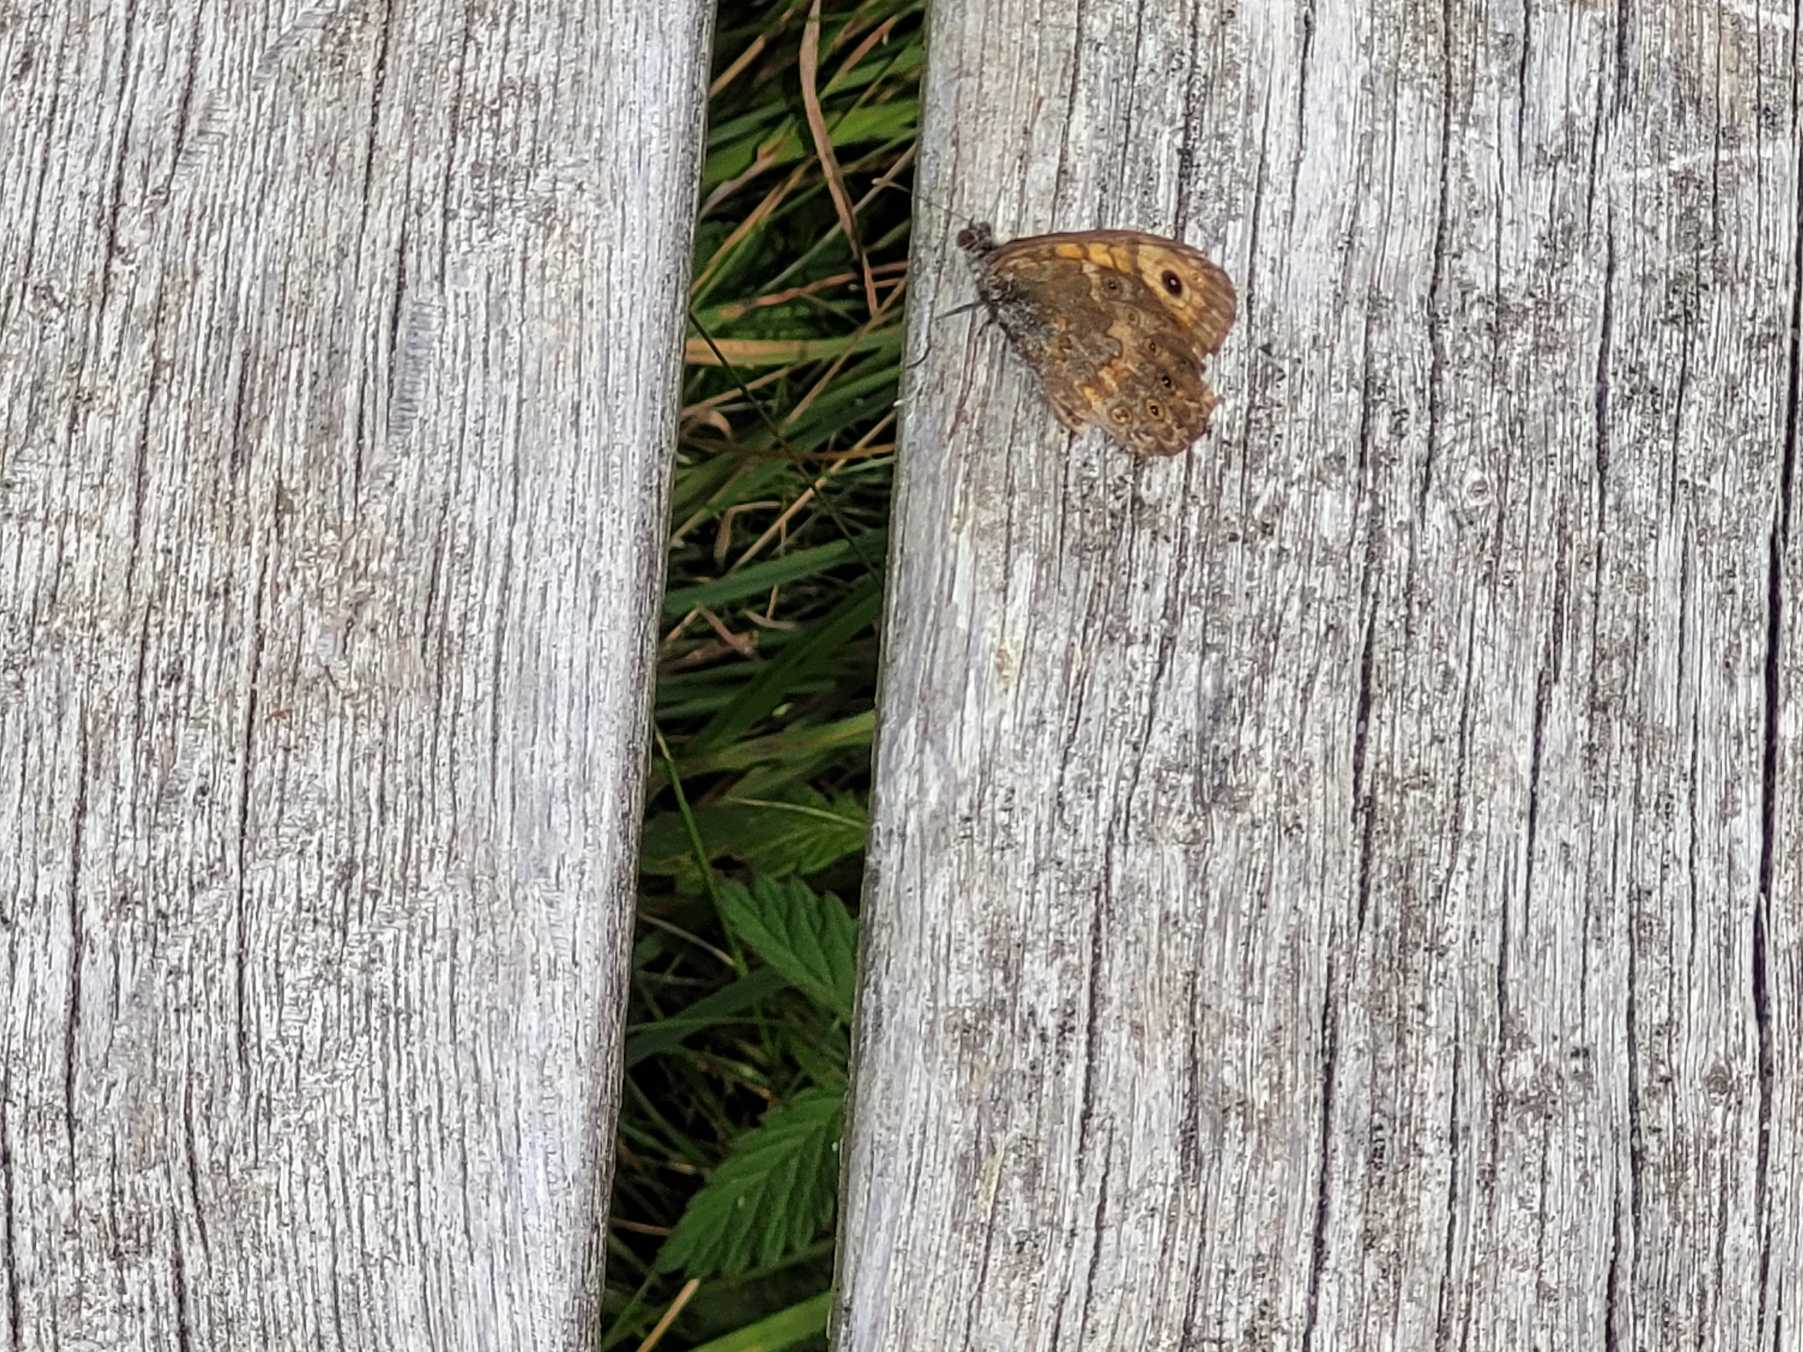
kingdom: Animalia
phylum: Arthropoda
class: Insecta
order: Lepidoptera
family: Nymphalidae
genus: Pararge
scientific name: Pararge Lasiommata megera
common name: Vejrandøje
